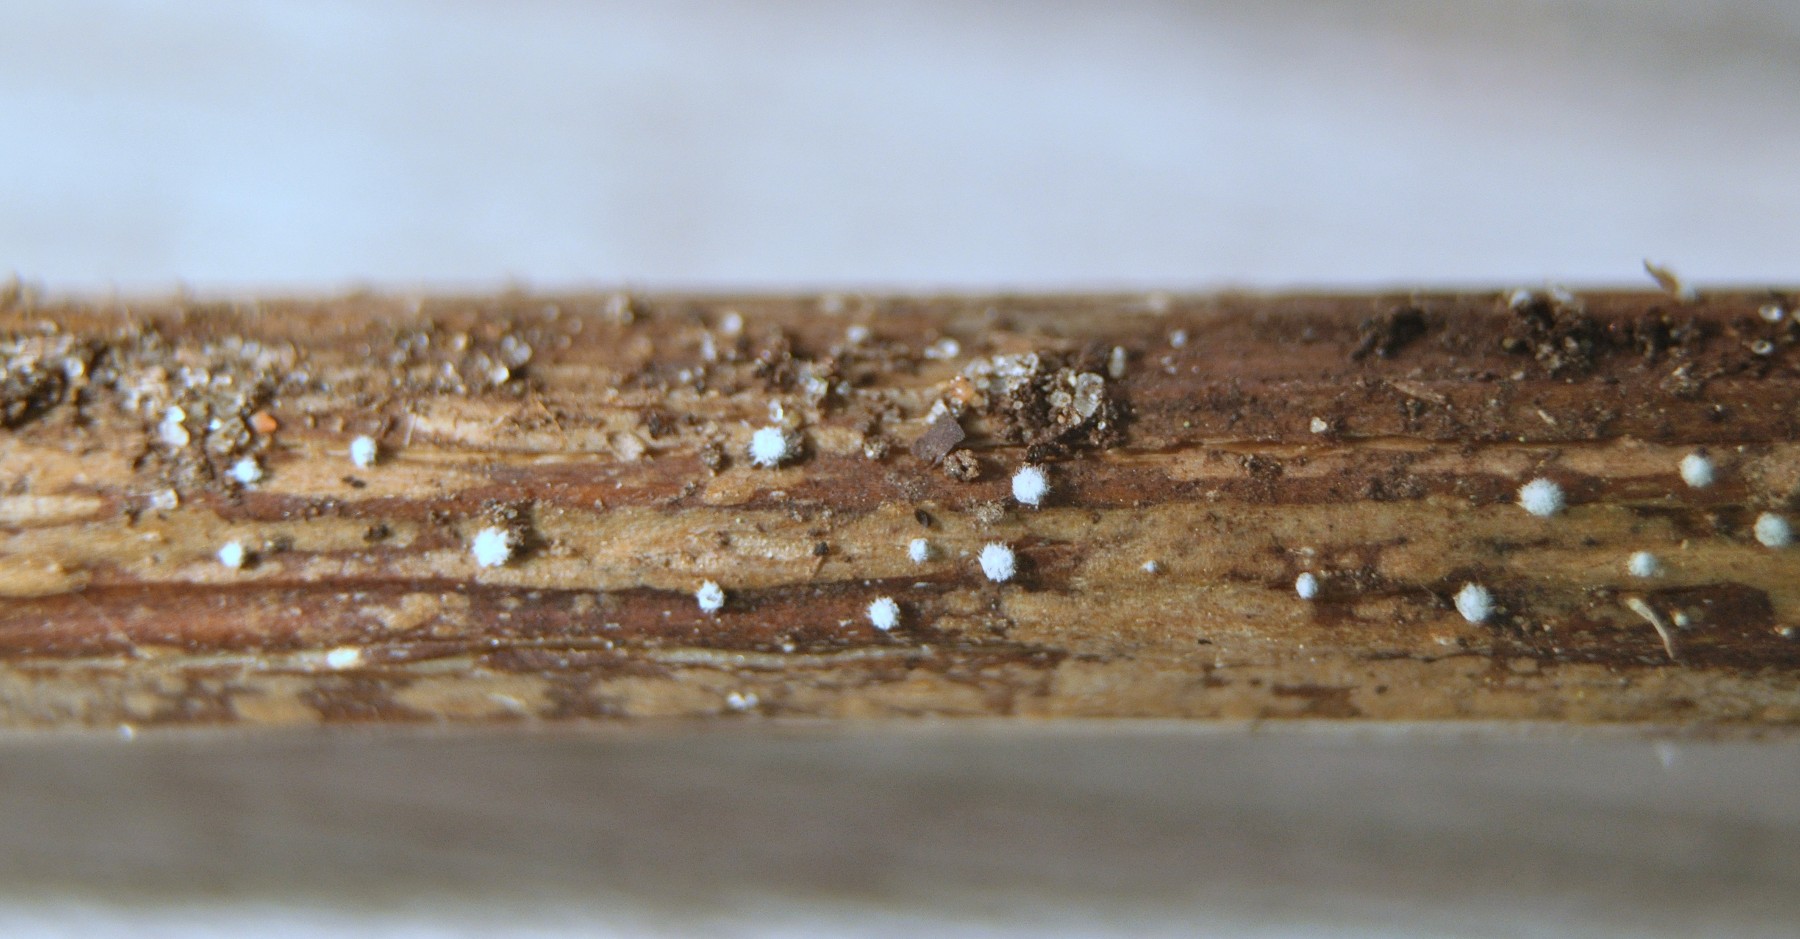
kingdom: Fungi
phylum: Ascomycota
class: Leotiomycetes
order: Helotiales
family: Lachnaceae
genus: Lachnella
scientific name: Lachnella
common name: frynserede
